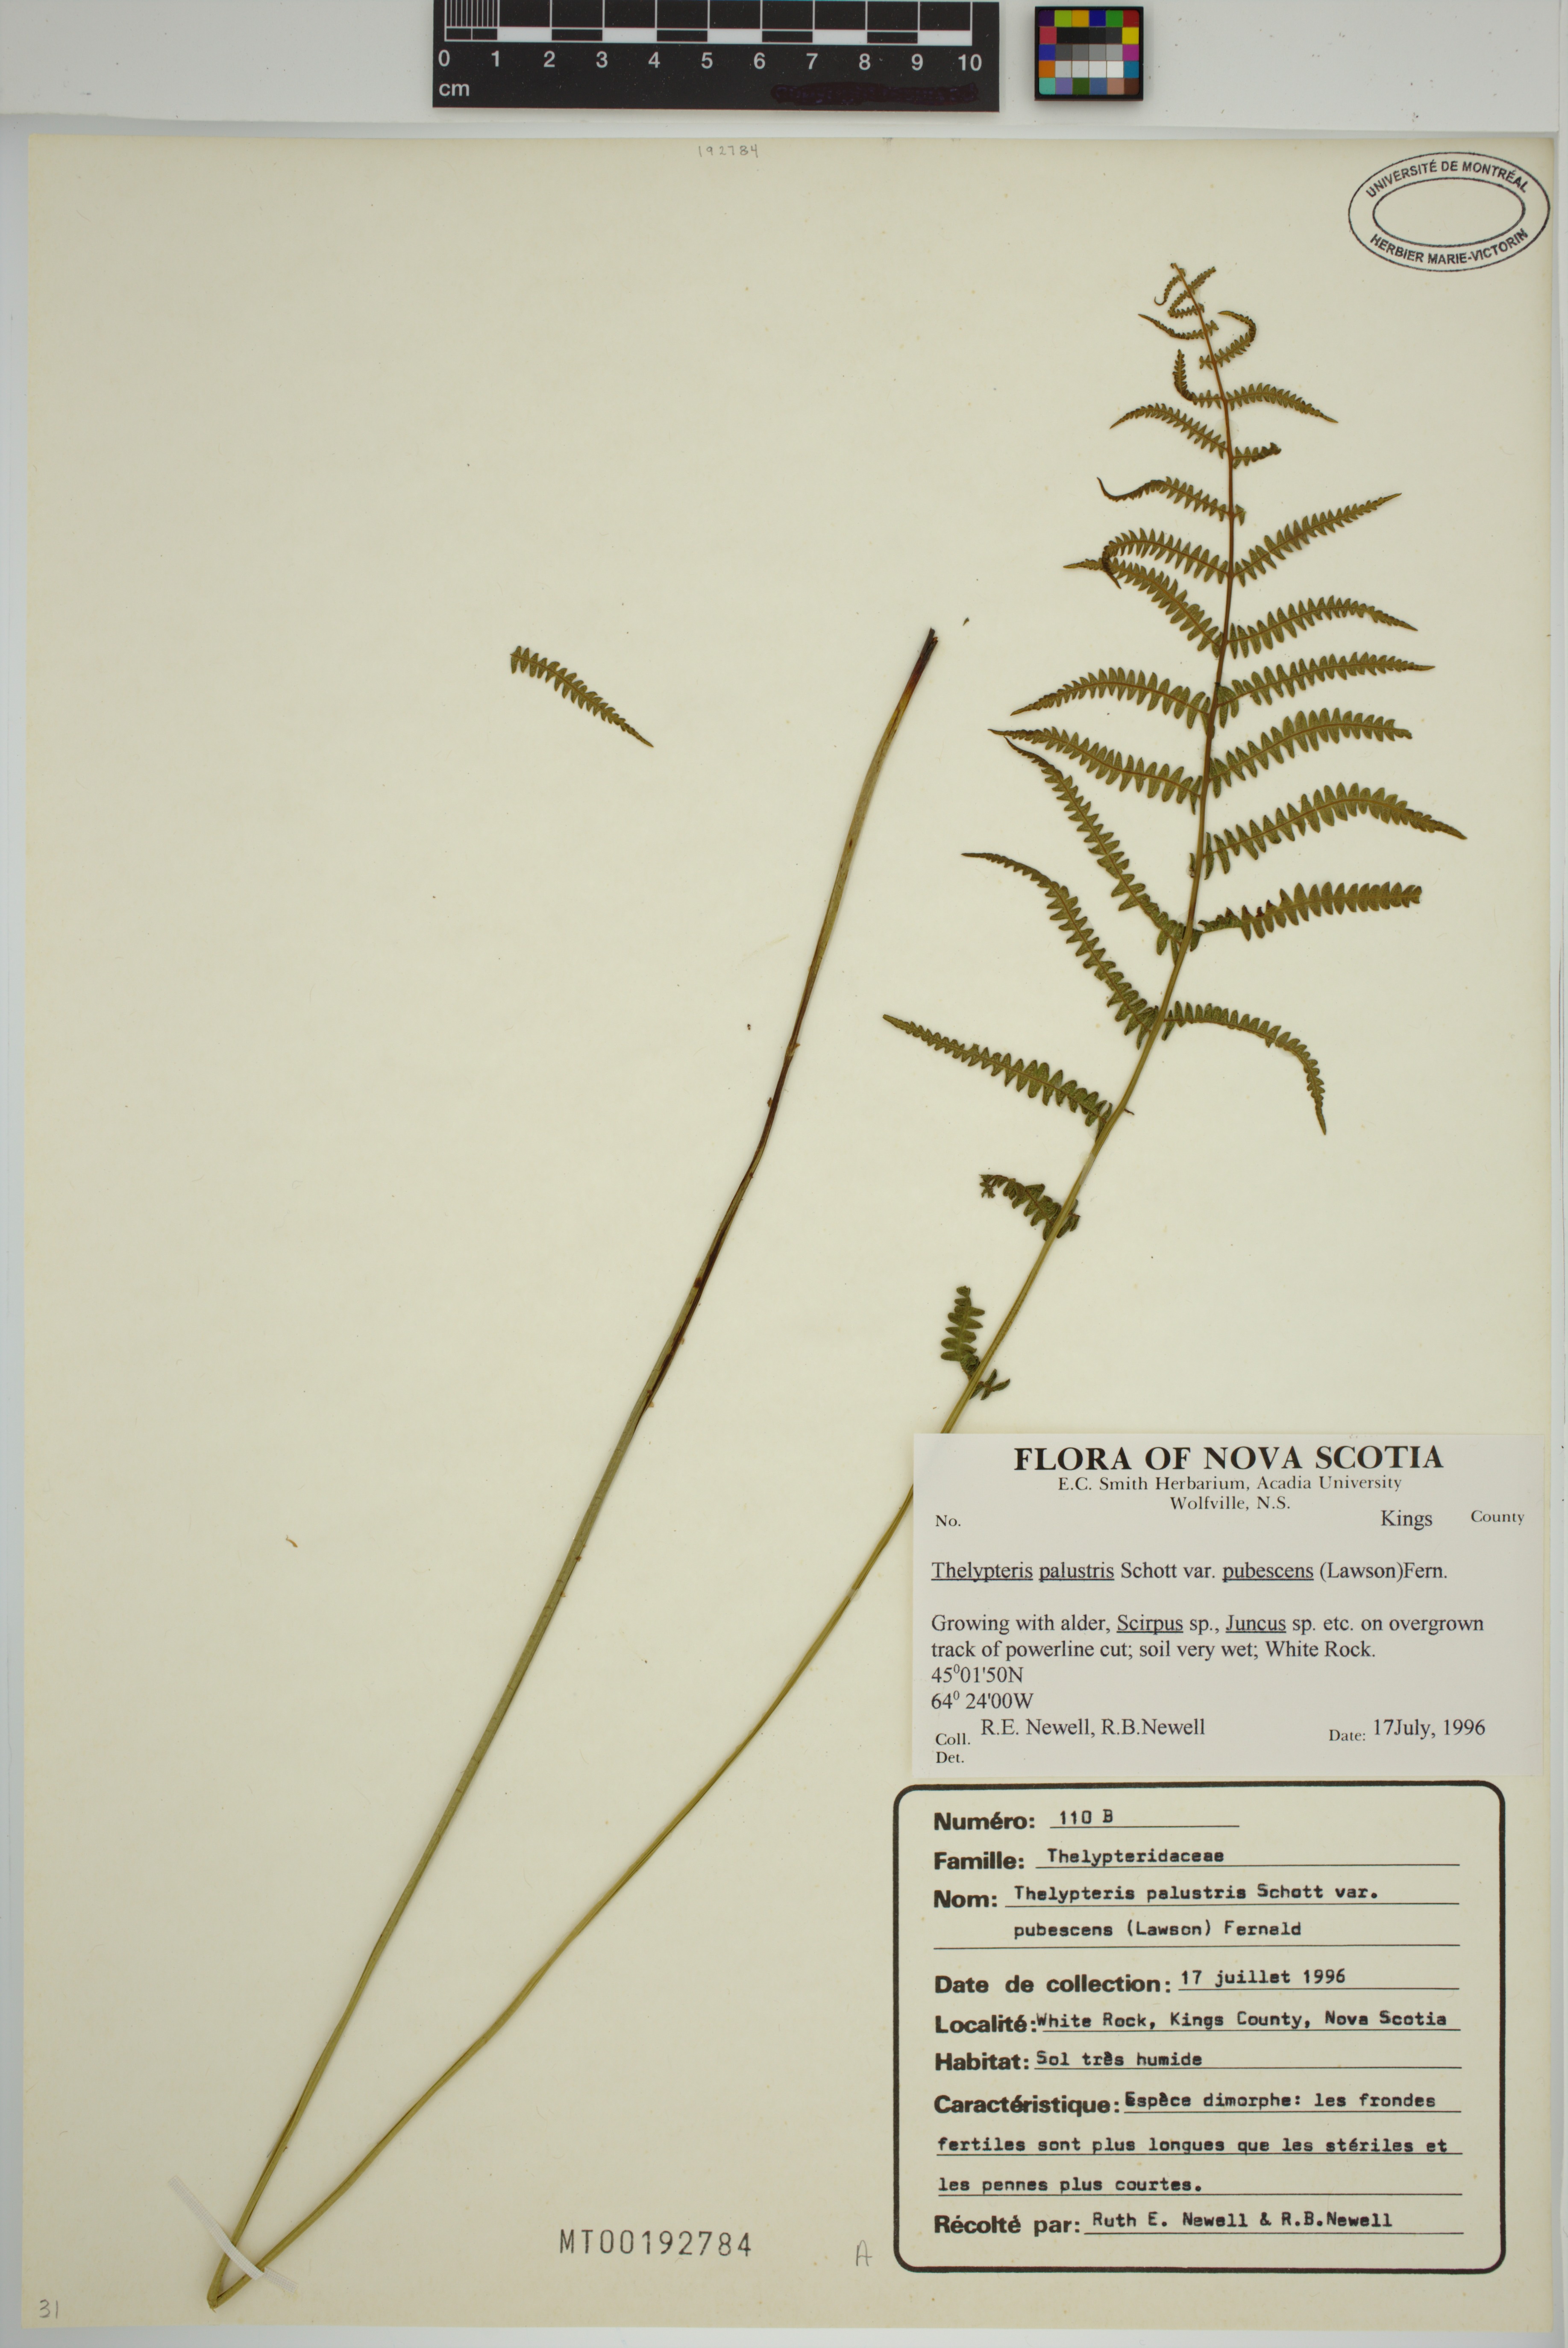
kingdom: Plantae
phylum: Tracheophyta
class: Polypodiopsida
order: Polypodiales
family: Thelypteridaceae
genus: Thelypteris
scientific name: Thelypteris palustris
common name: Marsh fern
